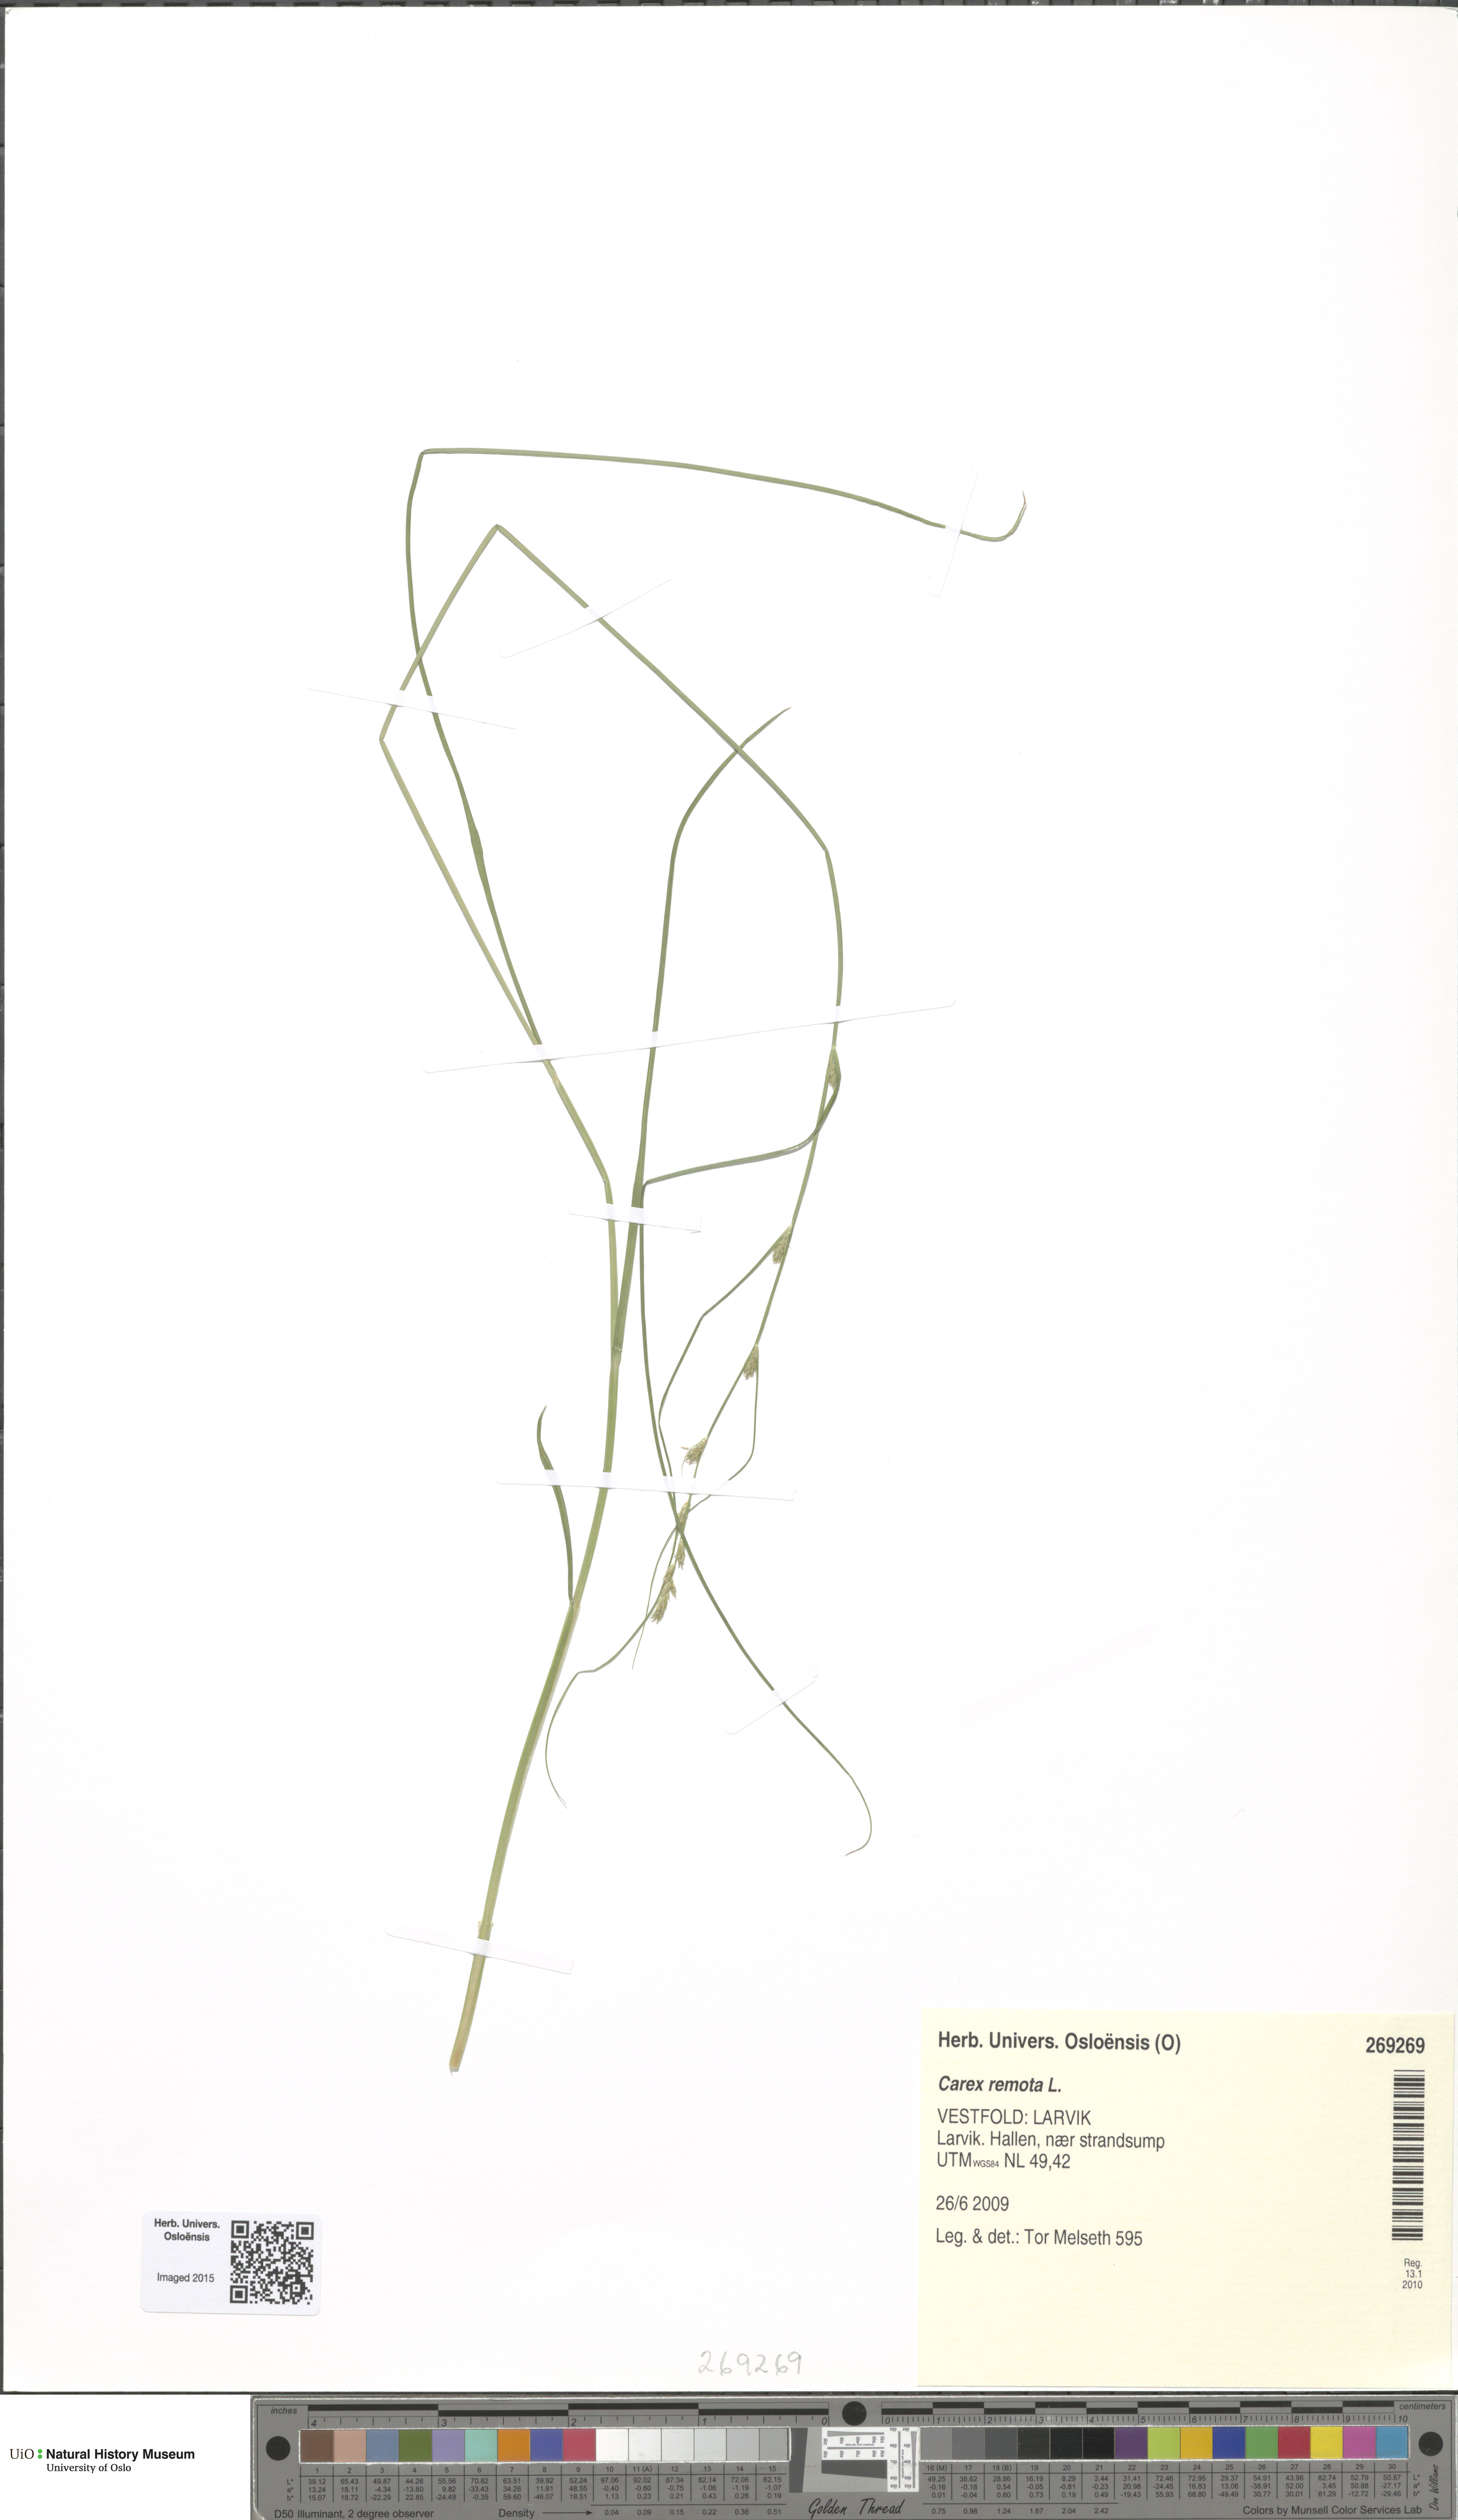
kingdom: Plantae
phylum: Tracheophyta
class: Liliopsida
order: Poales
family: Cyperaceae
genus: Carex
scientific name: Carex remota
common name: Remote sedge
